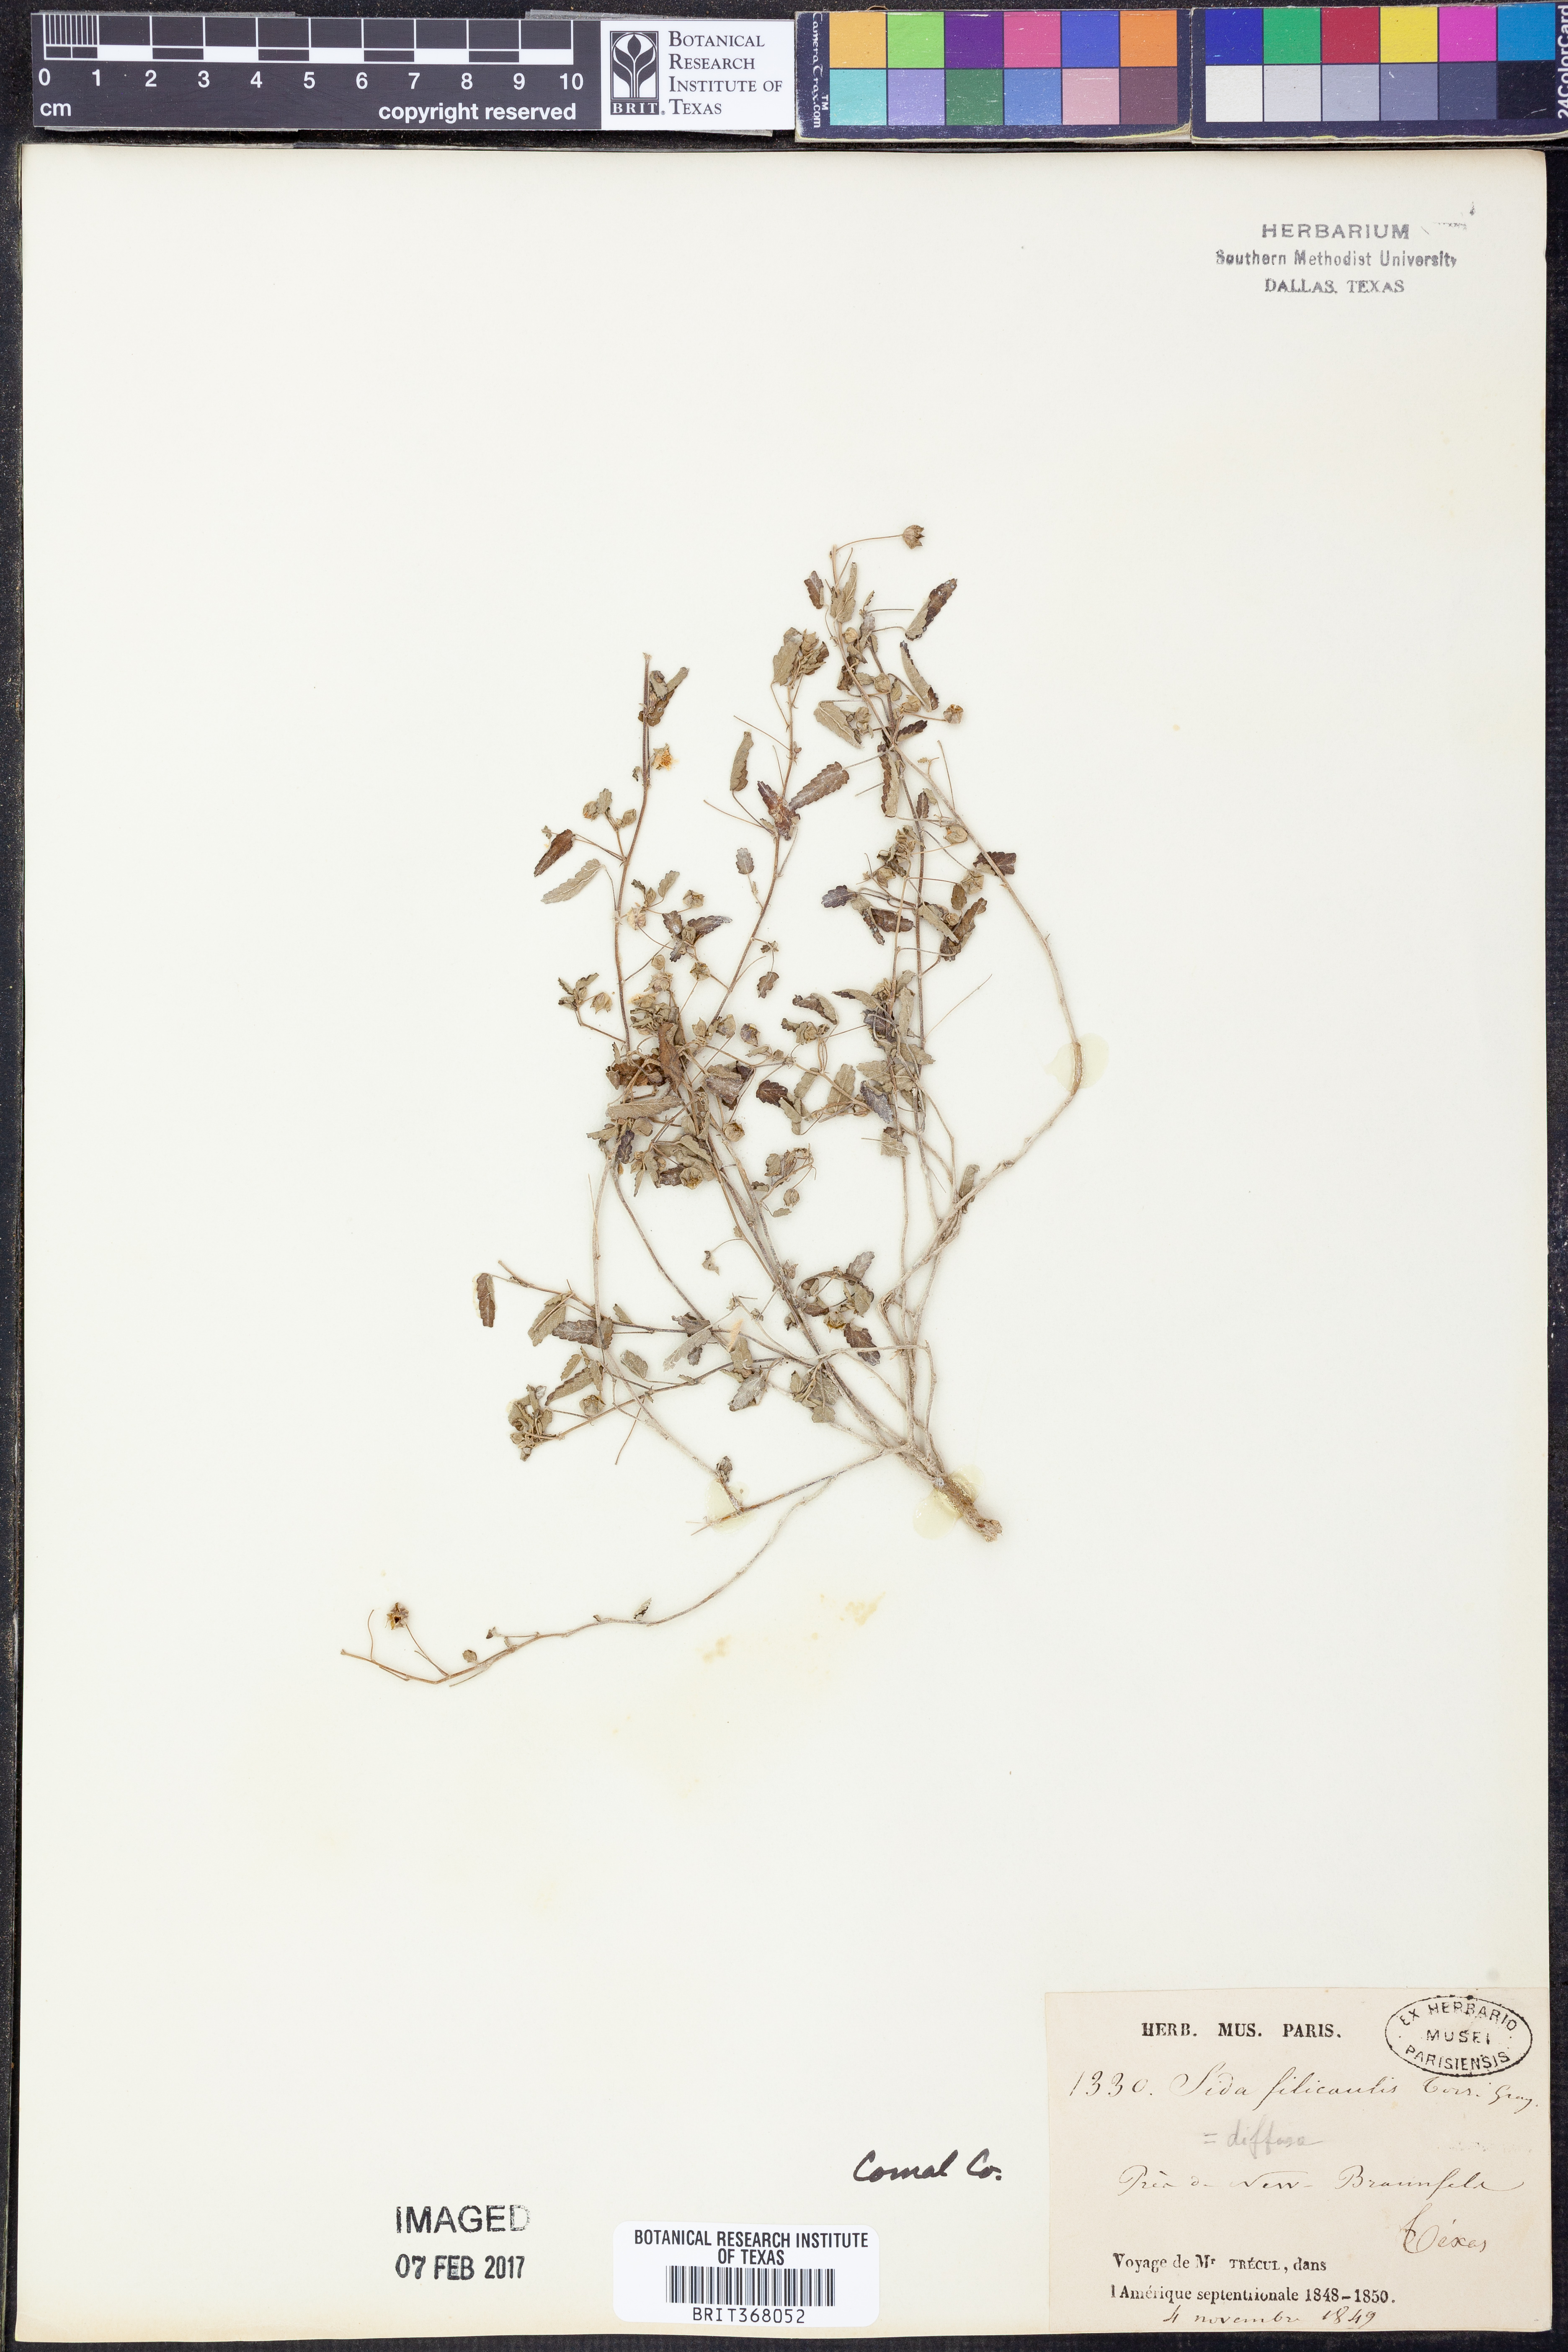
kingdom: Plantae
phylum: Tracheophyta
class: Magnoliopsida
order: Malvales
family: Malvaceae
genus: Sida
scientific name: Sida abutilifolia
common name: Spreading fanpetals
